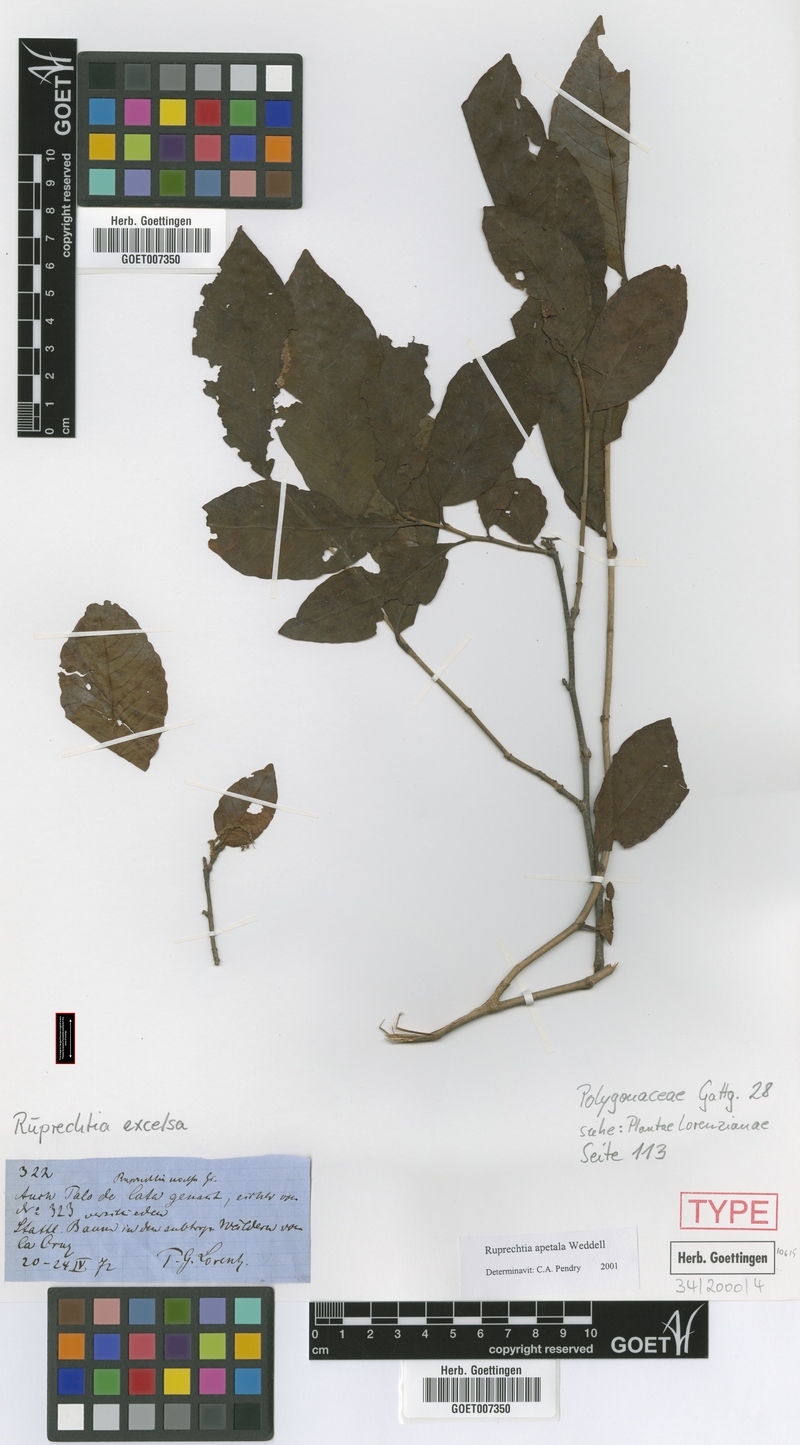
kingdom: Plantae
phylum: Tracheophyta
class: Magnoliopsida
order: Caryophyllales
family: Polygonaceae
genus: Ruprechtia
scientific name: Ruprechtia apetala
